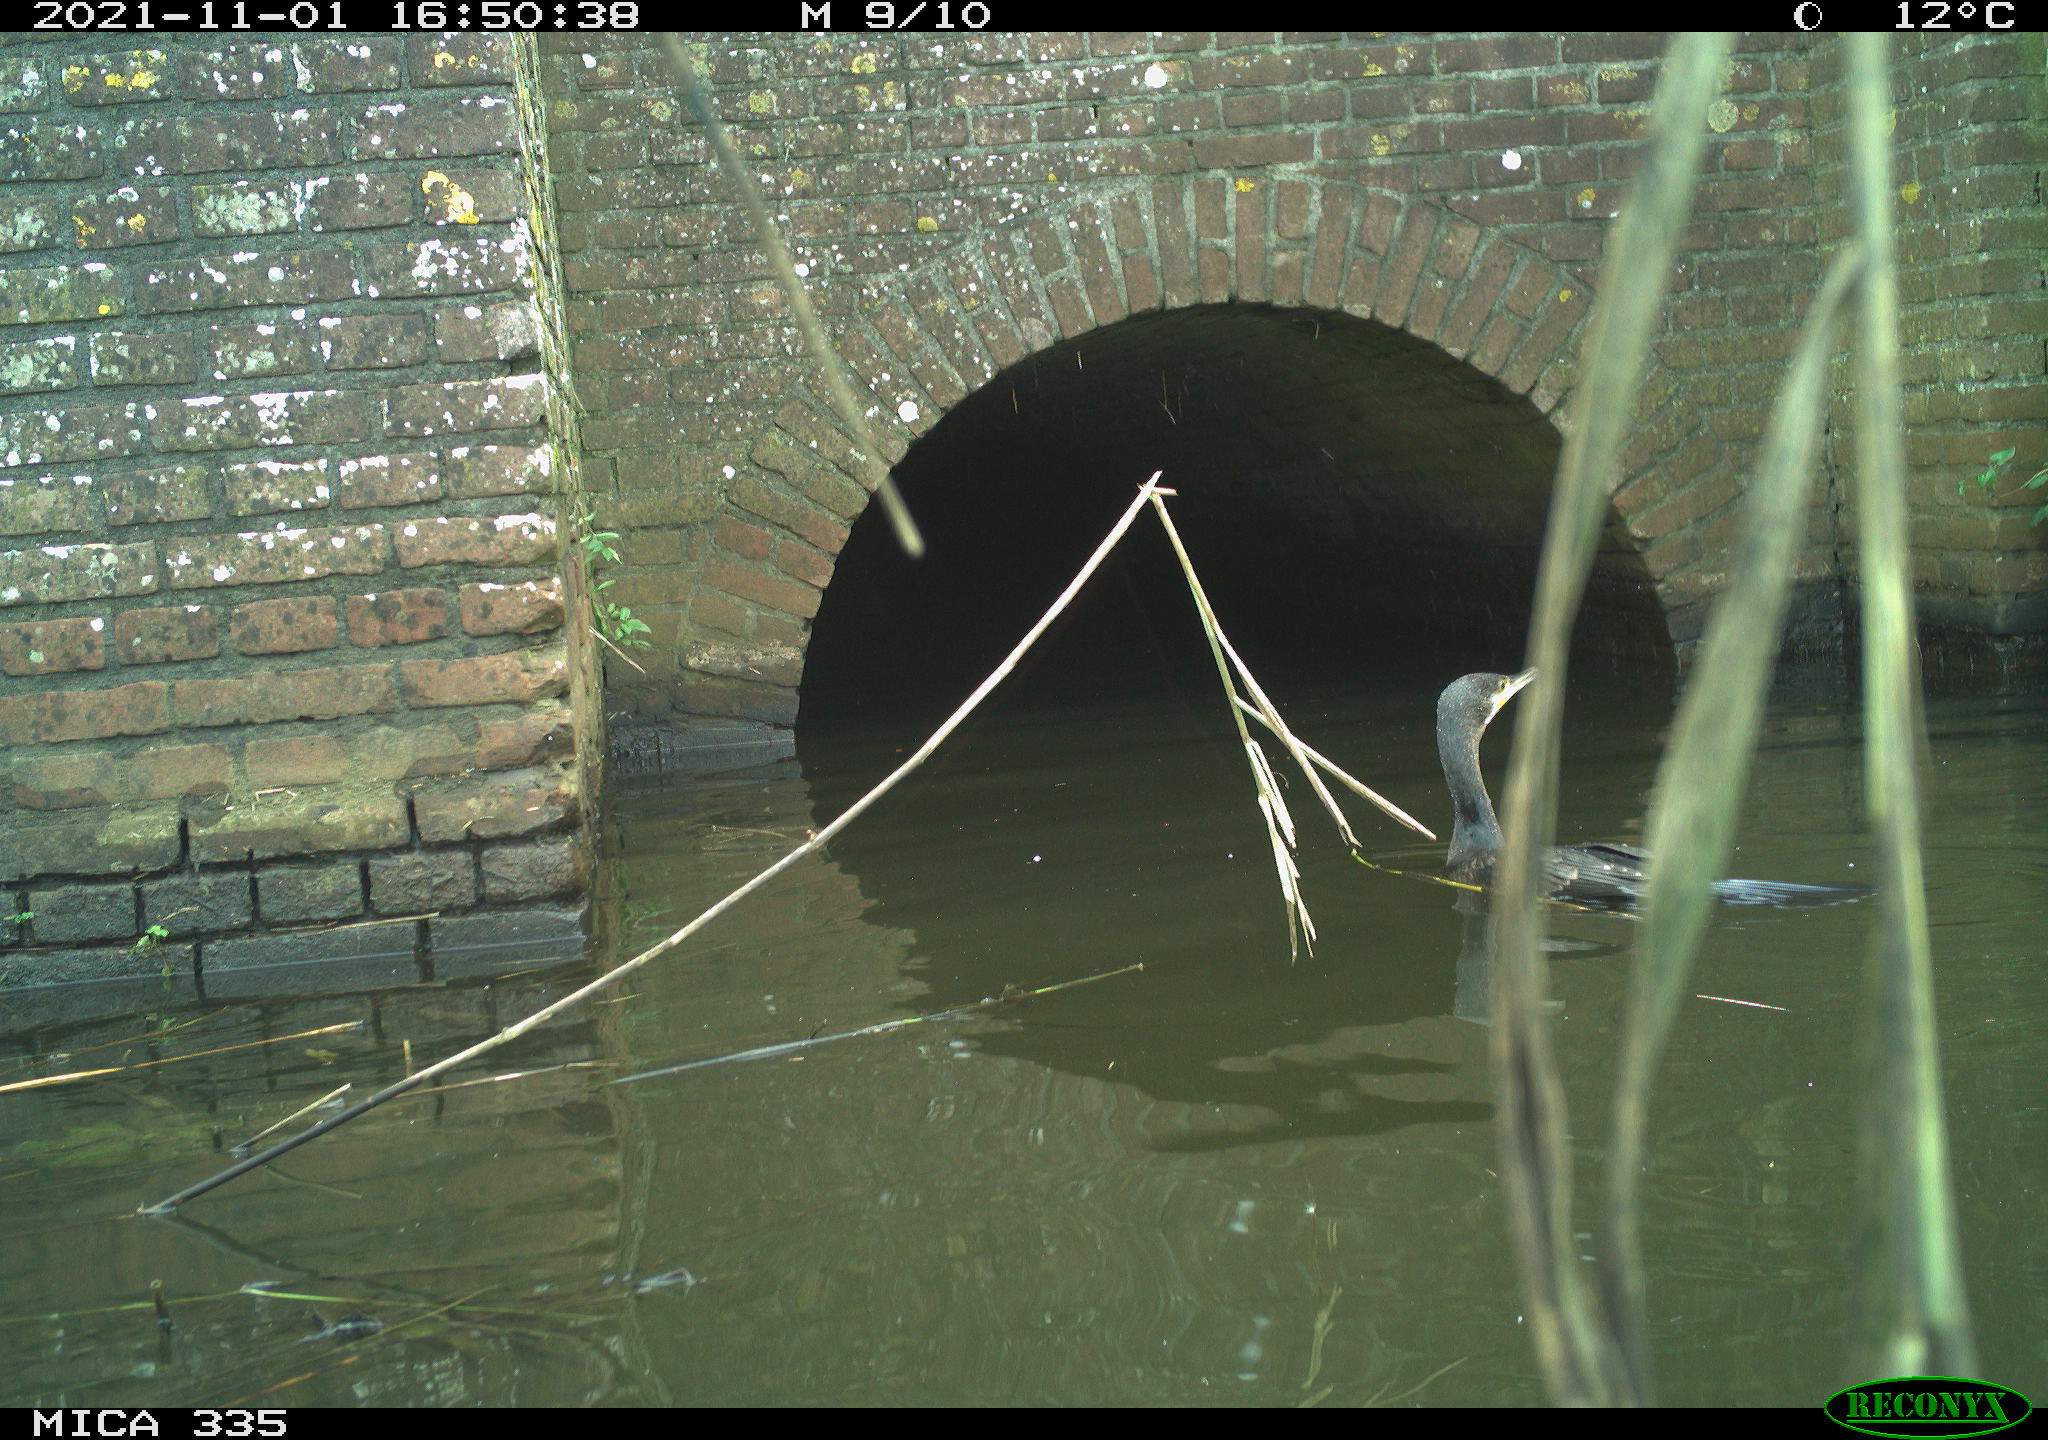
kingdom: Animalia
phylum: Chordata
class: Aves
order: Suliformes
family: Phalacrocoracidae
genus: Phalacrocorax
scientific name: Phalacrocorax carbo
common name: Great cormorant
